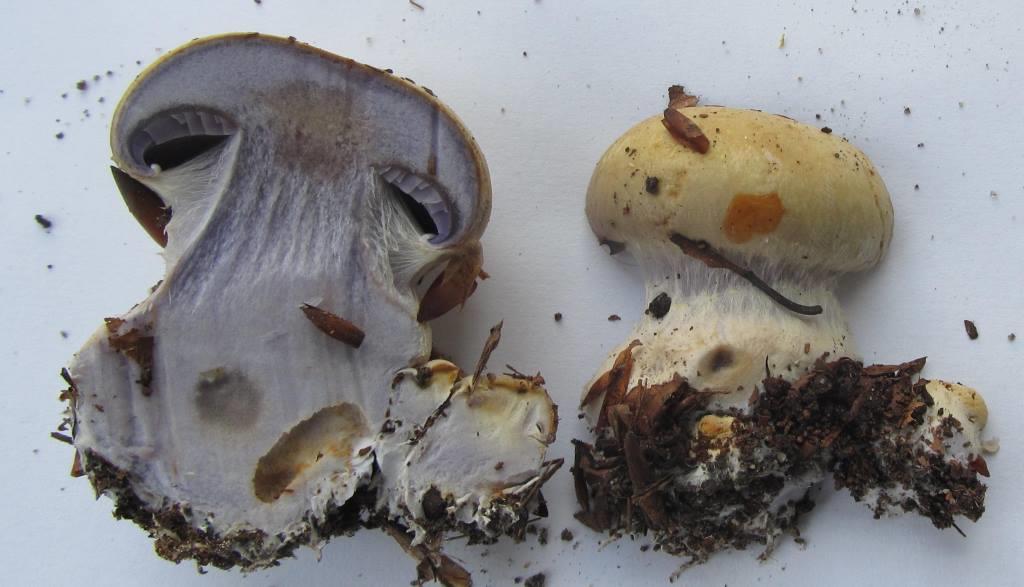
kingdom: Fungi
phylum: Basidiomycota
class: Agaricomycetes
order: Agaricales
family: Cortinariaceae
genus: Cortinarius
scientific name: Cortinarius anserinus
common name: bøge-slørhat
